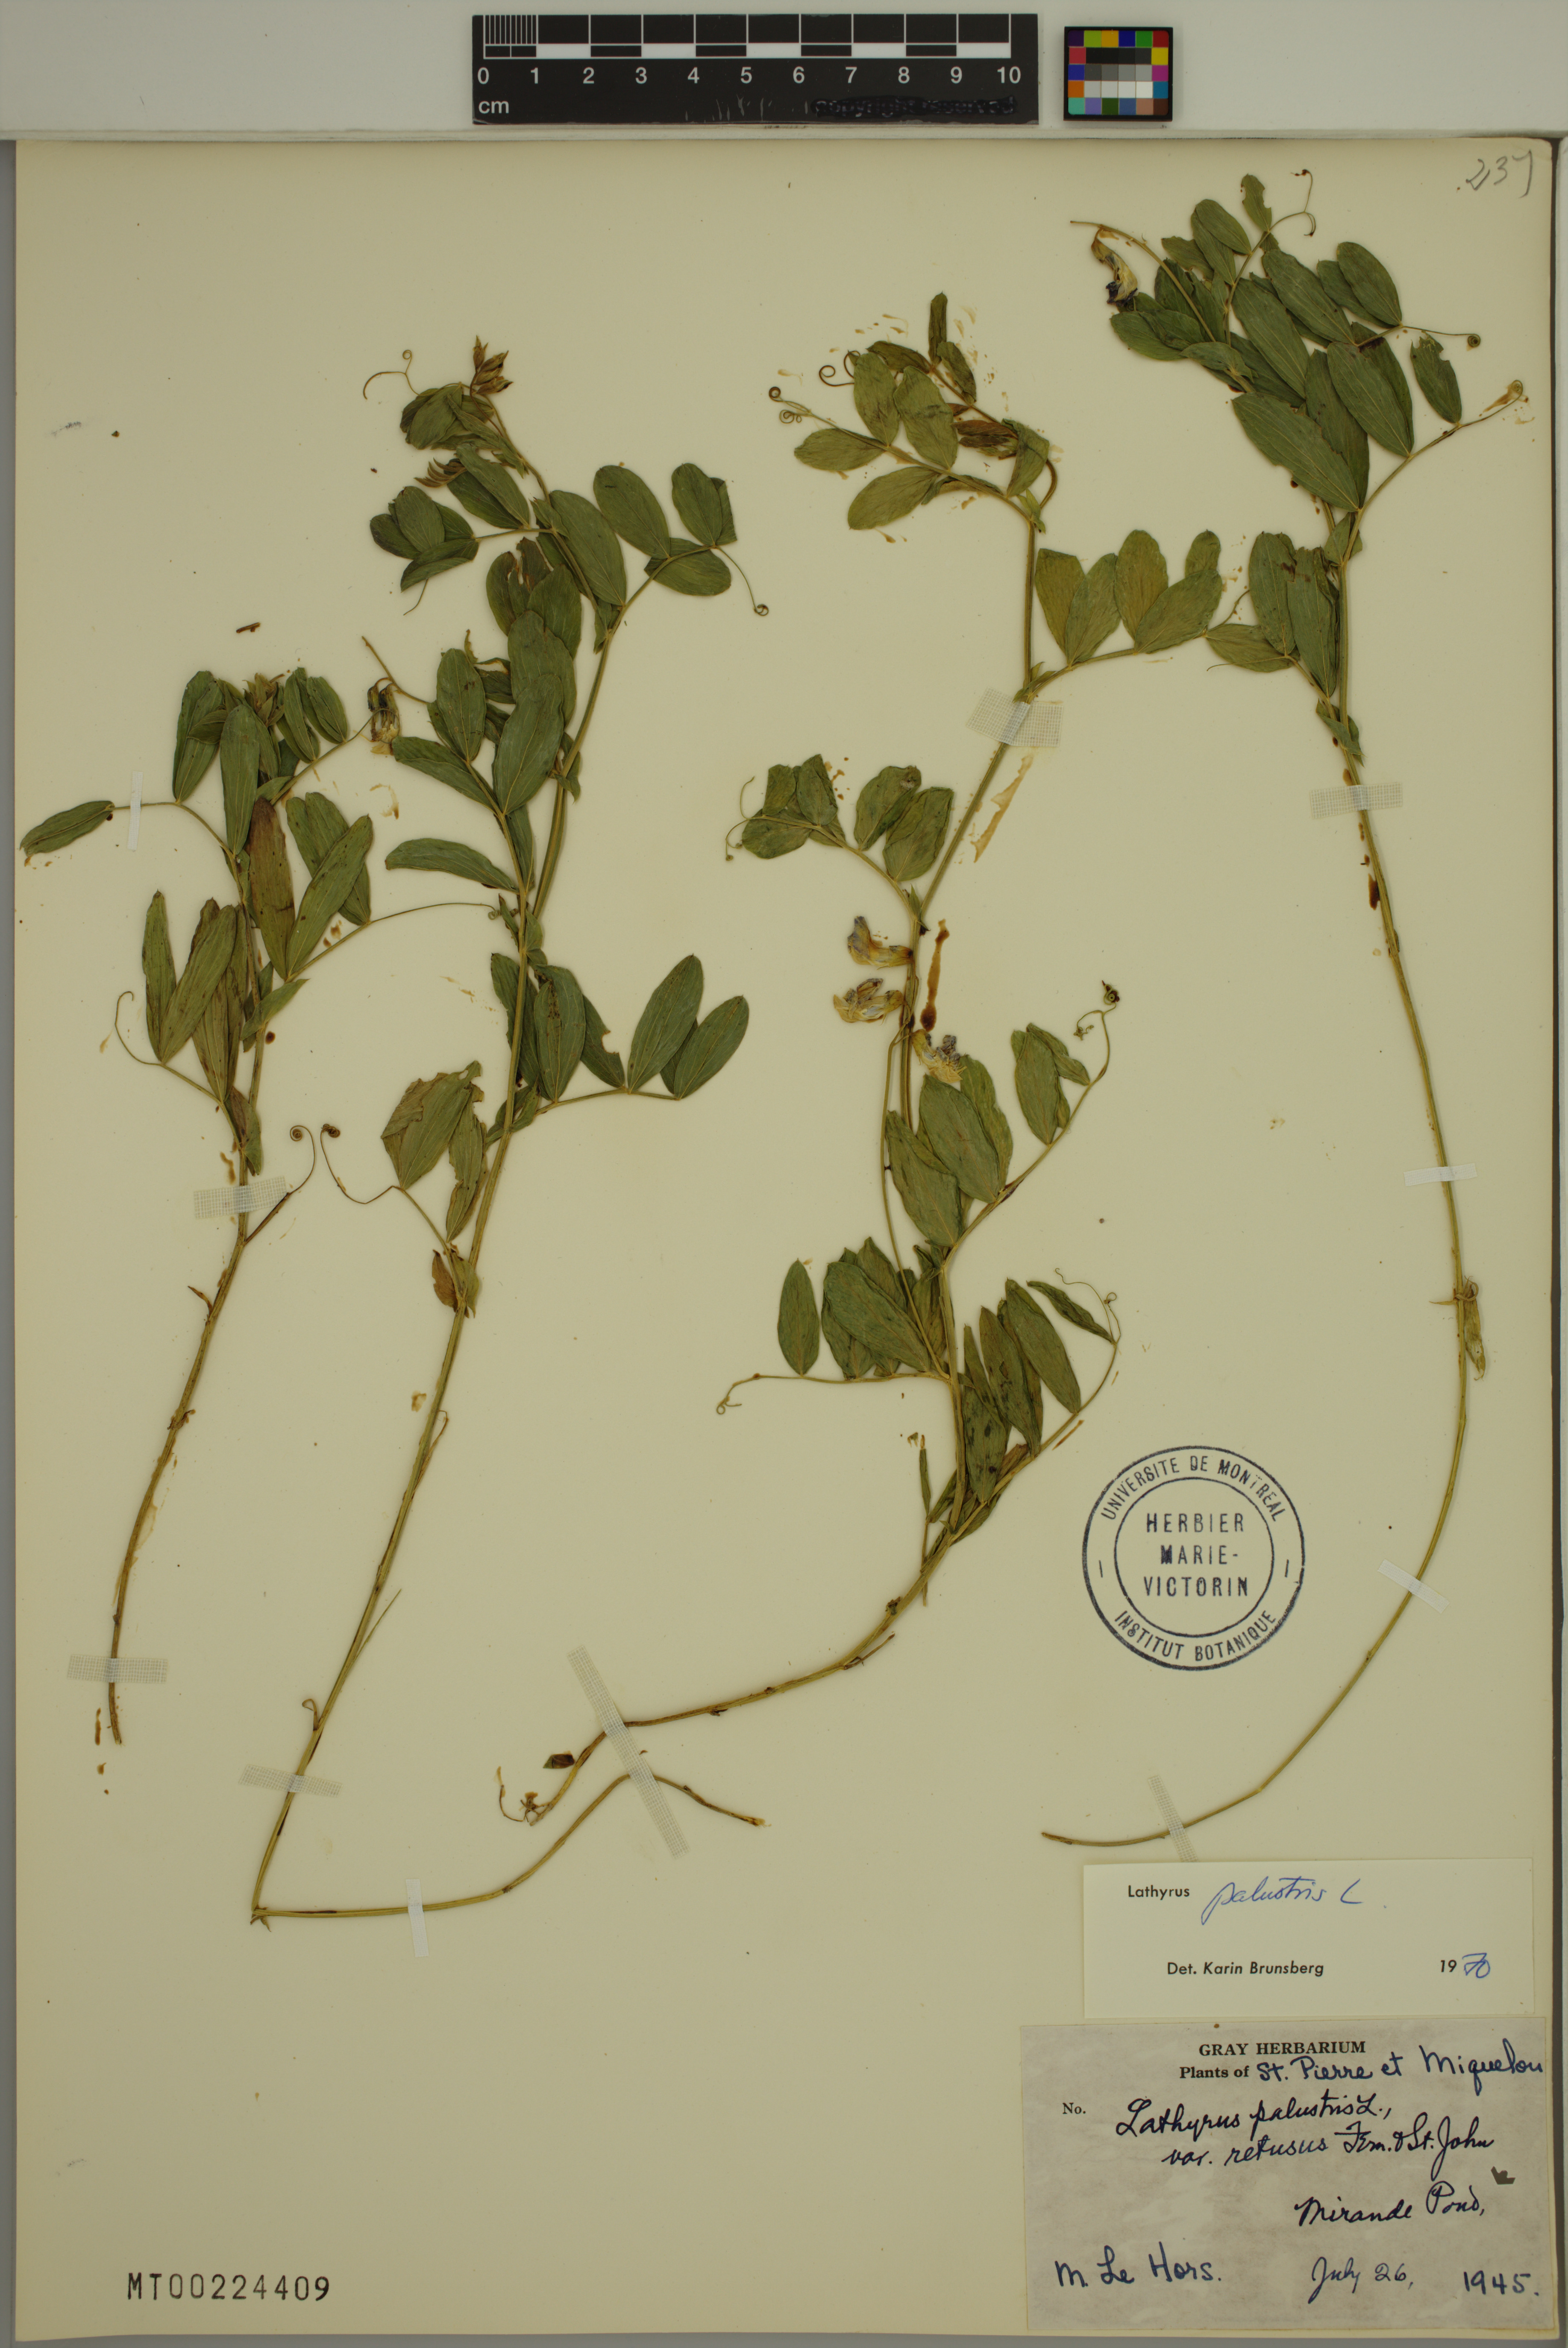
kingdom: Plantae
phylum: Tracheophyta
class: Magnoliopsida
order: Fabales
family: Fabaceae
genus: Lathyrus
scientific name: Lathyrus palustris
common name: Marsh pea
